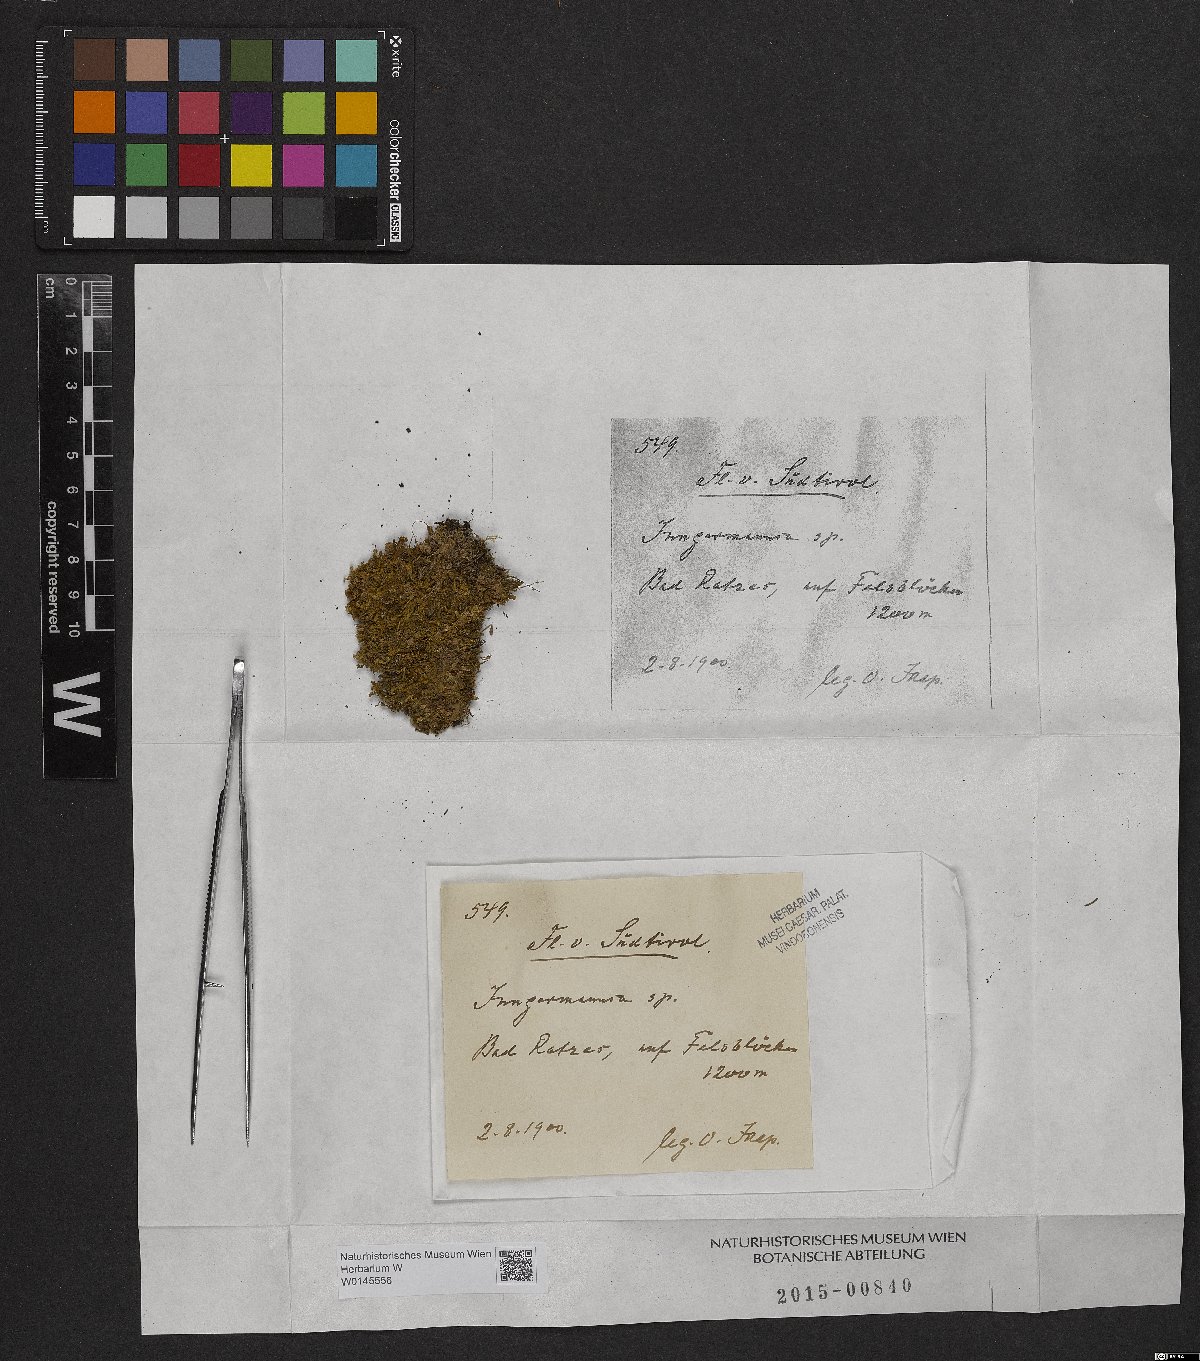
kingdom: Plantae
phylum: Marchantiophyta
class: Jungermanniopsida
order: Jungermanniales
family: Jungermanniaceae
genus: Jungermannia
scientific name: Jungermannia
